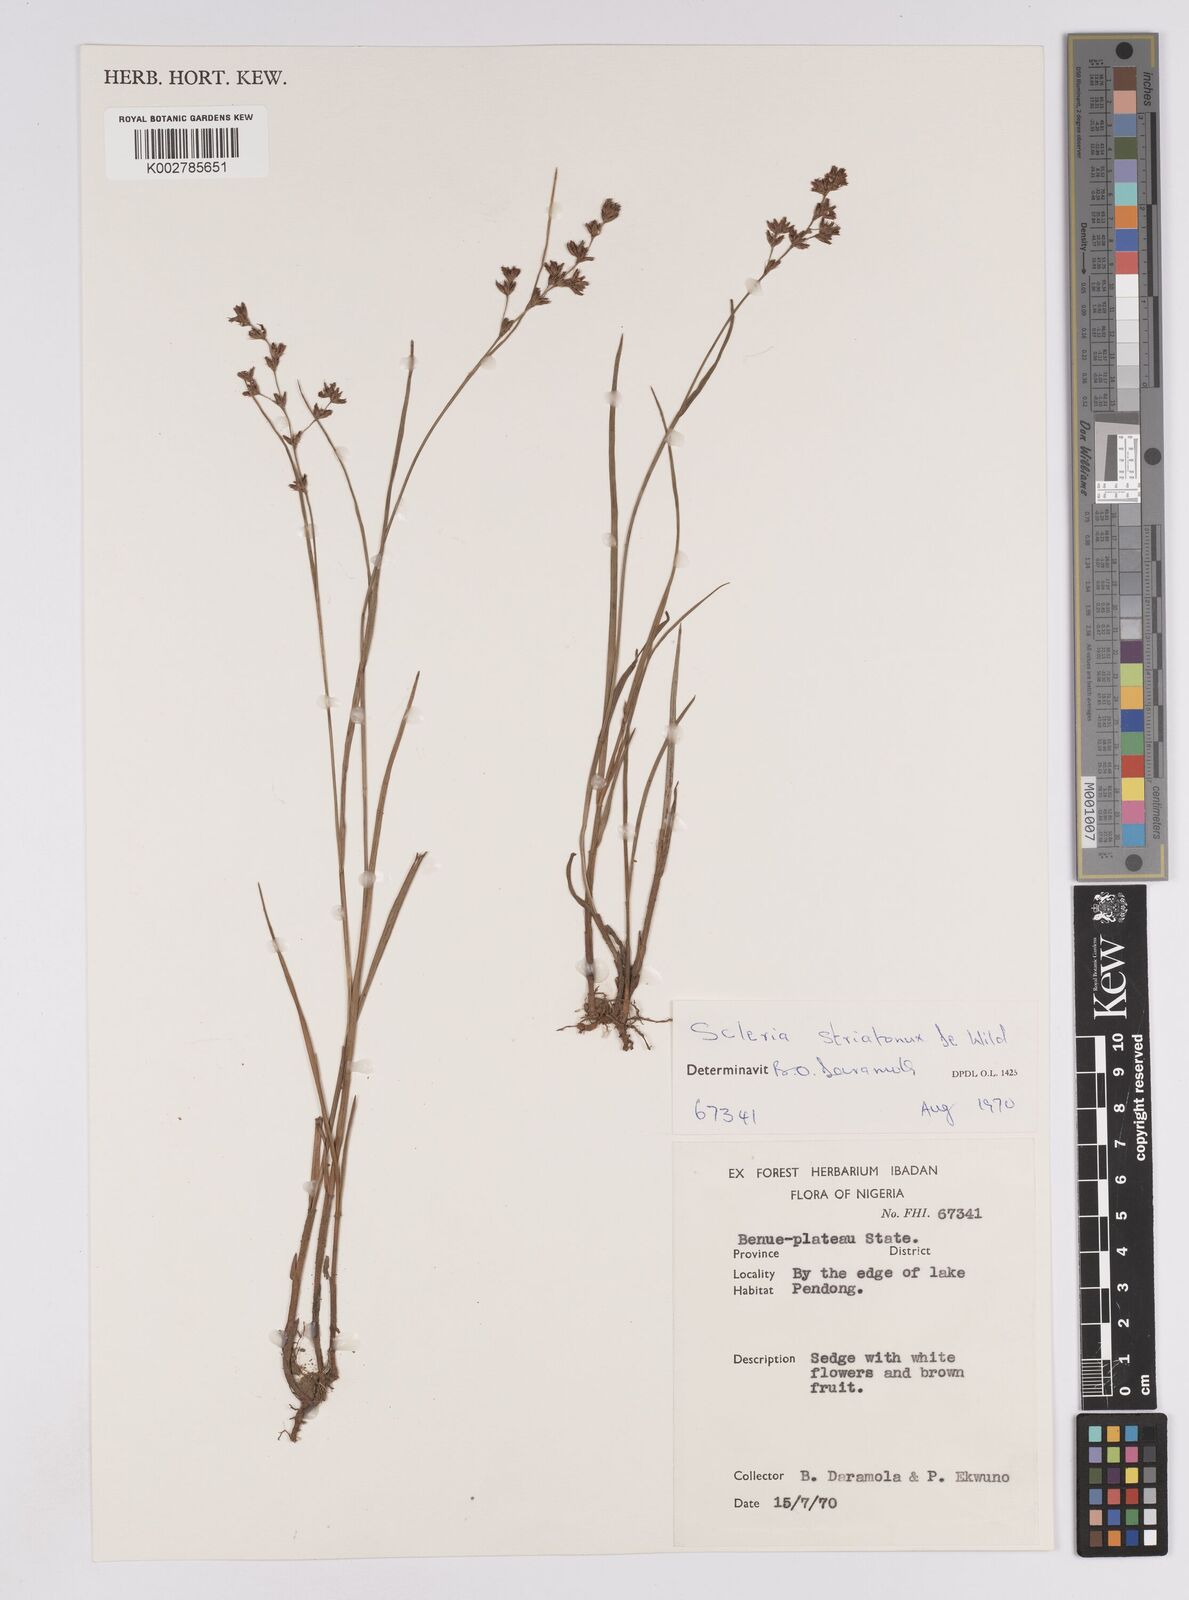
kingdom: Plantae
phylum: Tracheophyta
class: Liliopsida
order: Poales
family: Cyperaceae
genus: Scleria
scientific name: Scleria woodii
